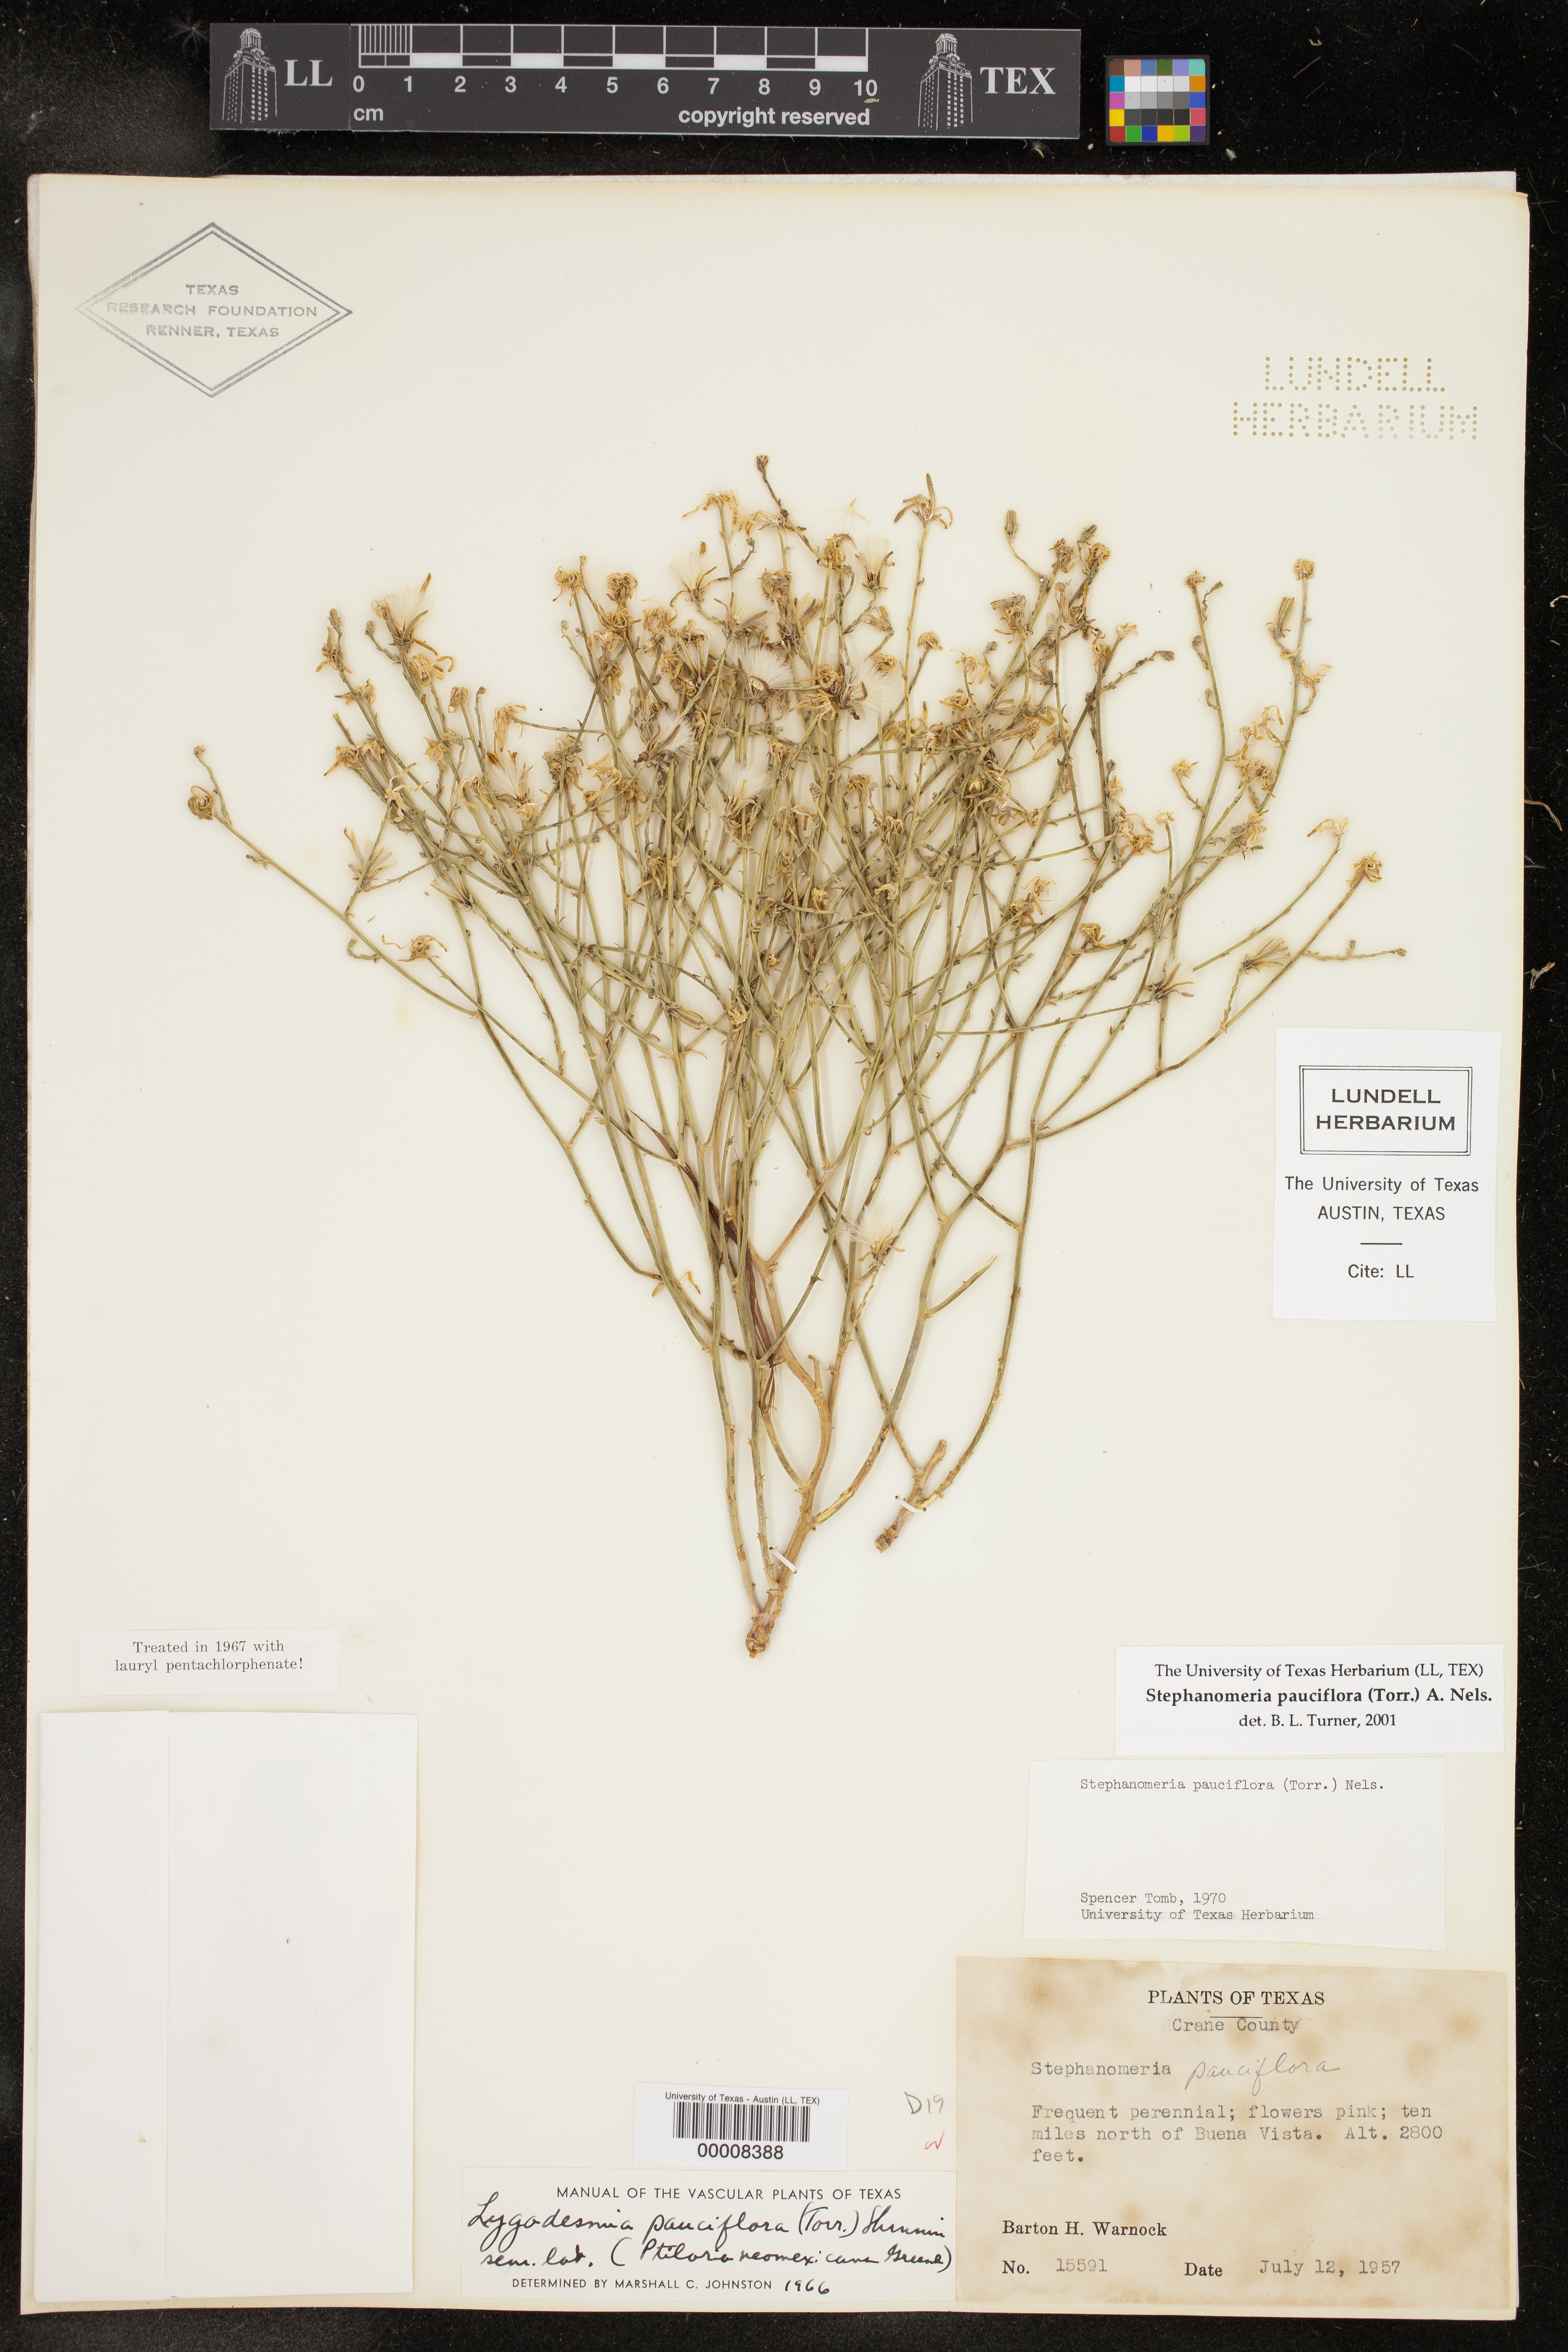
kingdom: Plantae
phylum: Tracheophyta
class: Magnoliopsida
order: Asterales
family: Asteraceae
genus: Stephanomeria
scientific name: Stephanomeria pauciflora
